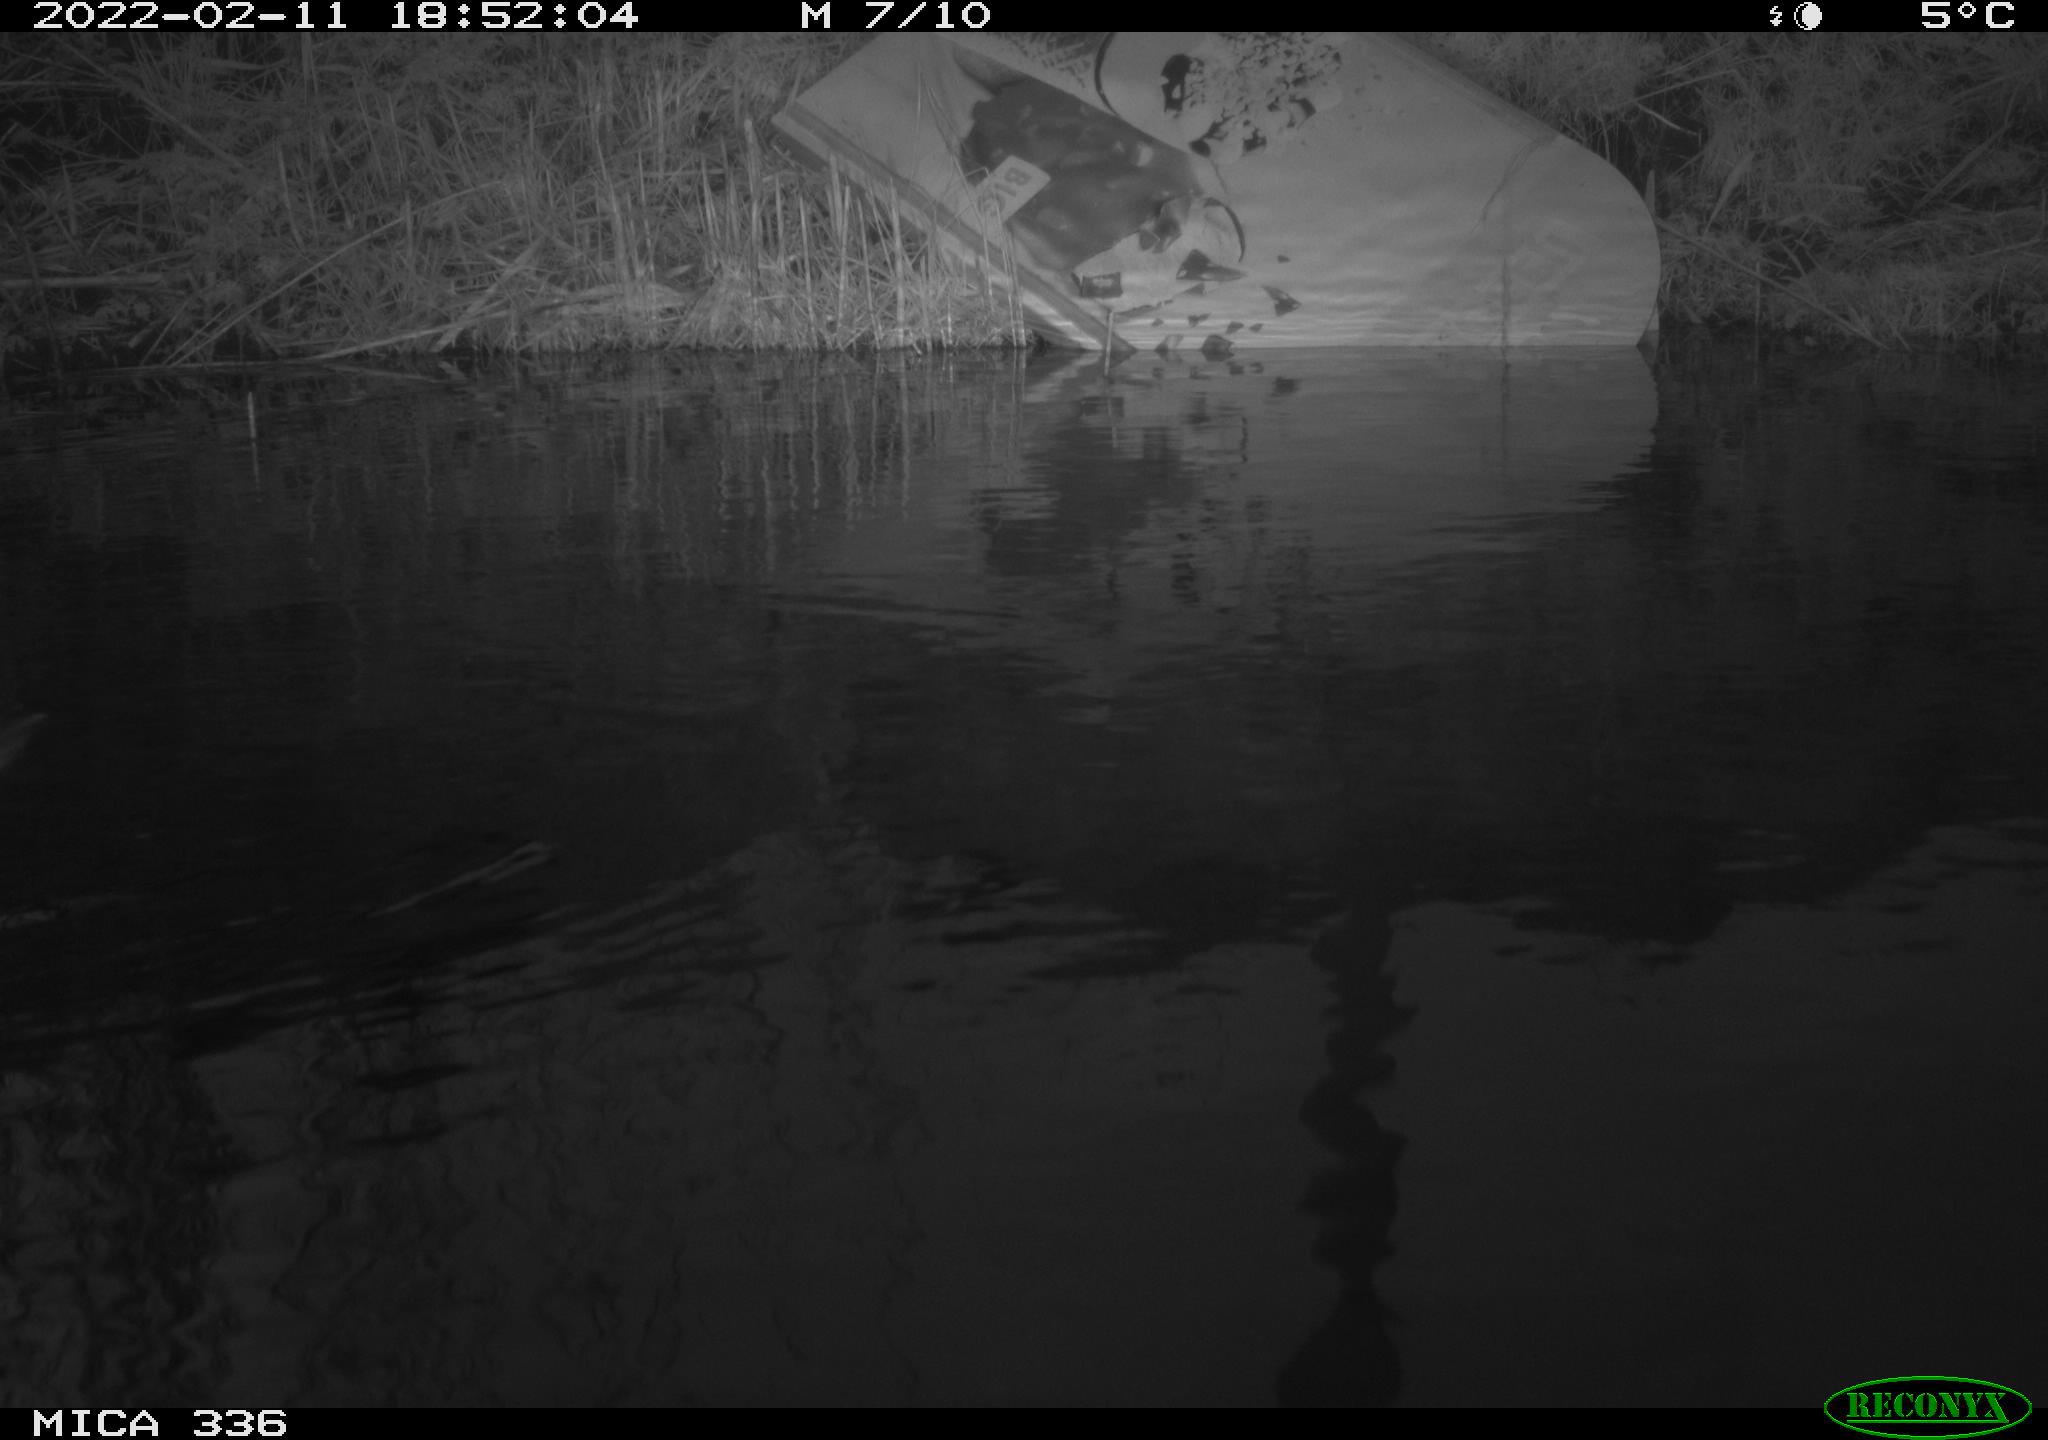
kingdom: Animalia
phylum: Chordata
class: Aves
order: Gruiformes
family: Rallidae
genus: Gallinula
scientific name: Gallinula chloropus
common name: Common moorhen
